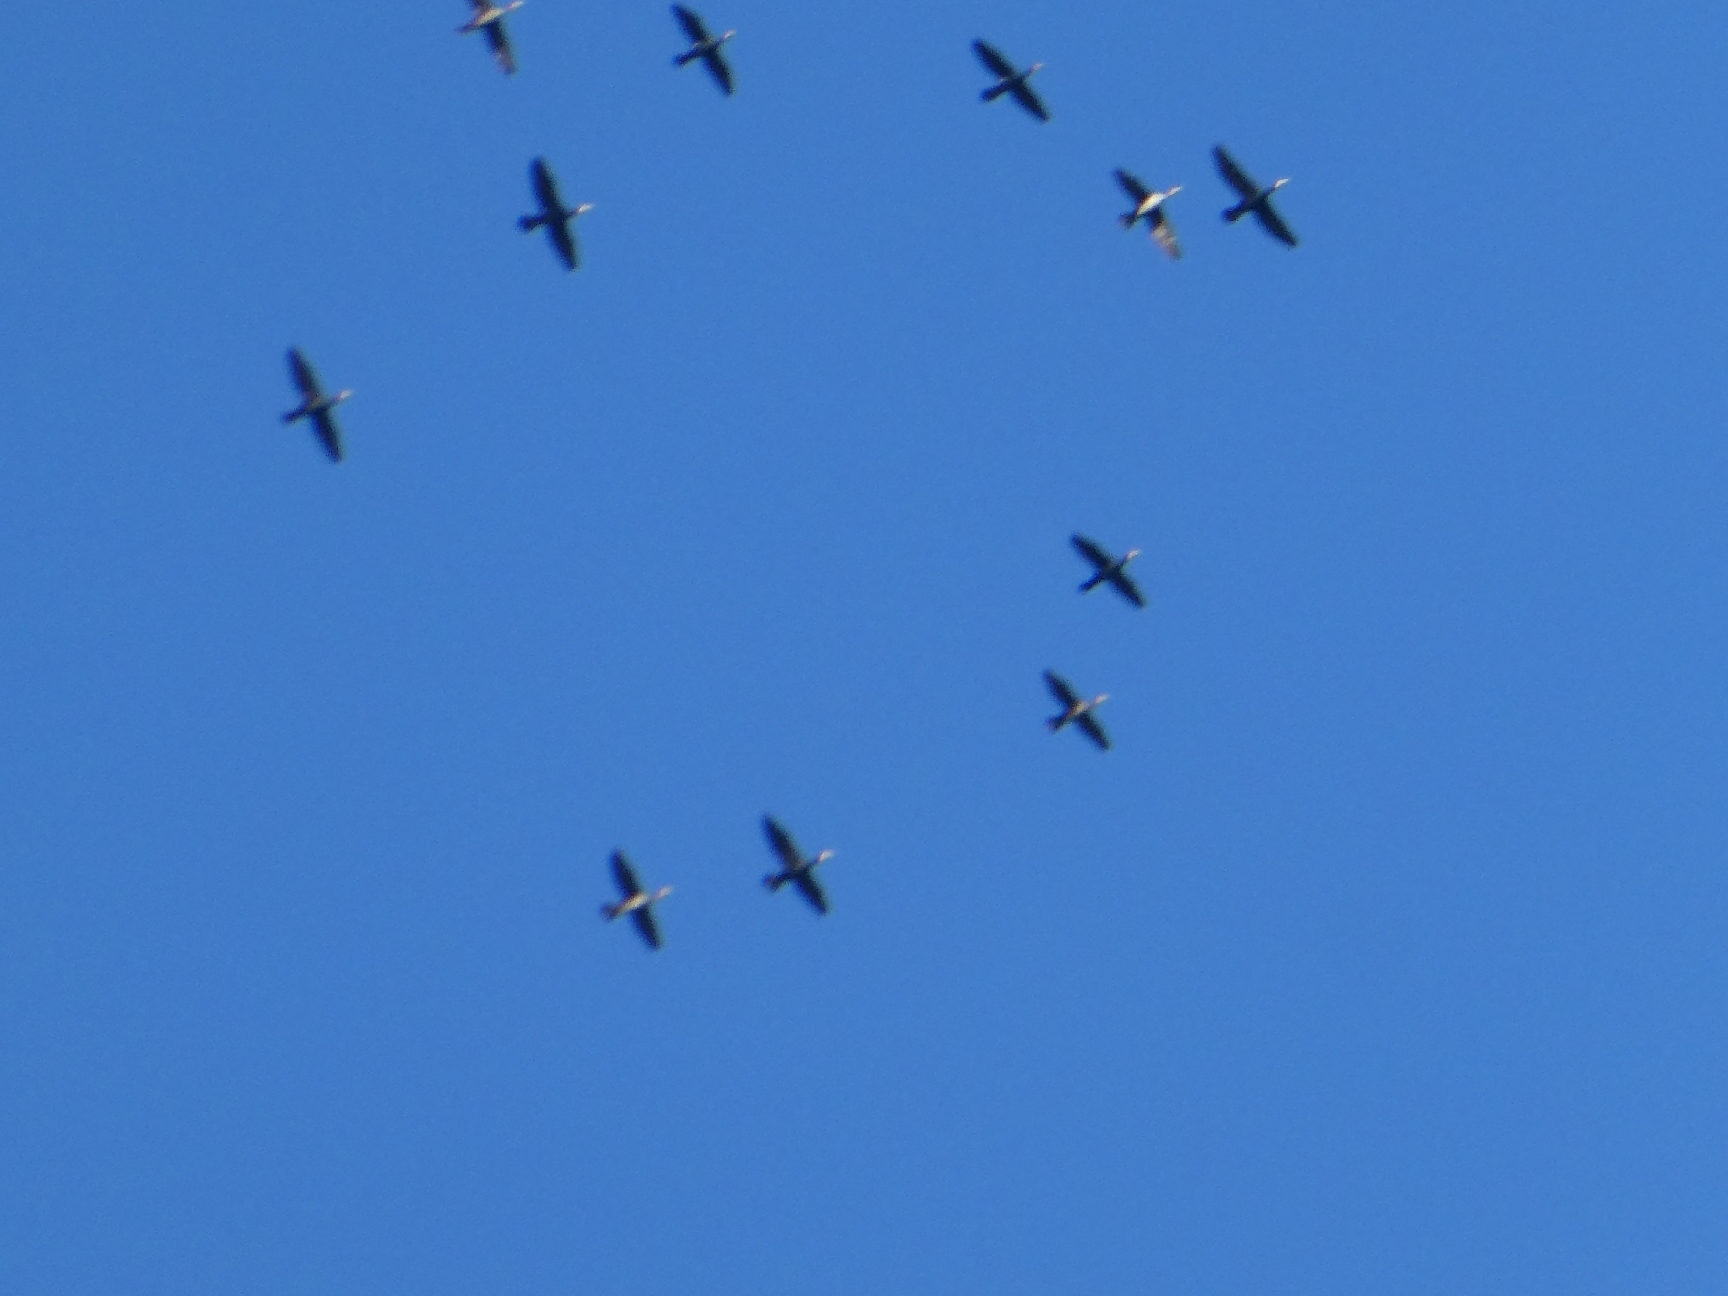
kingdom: Animalia
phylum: Chordata
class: Aves
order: Suliformes
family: Phalacrocoracidae
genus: Phalacrocorax
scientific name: Phalacrocorax carbo
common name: Skarv
